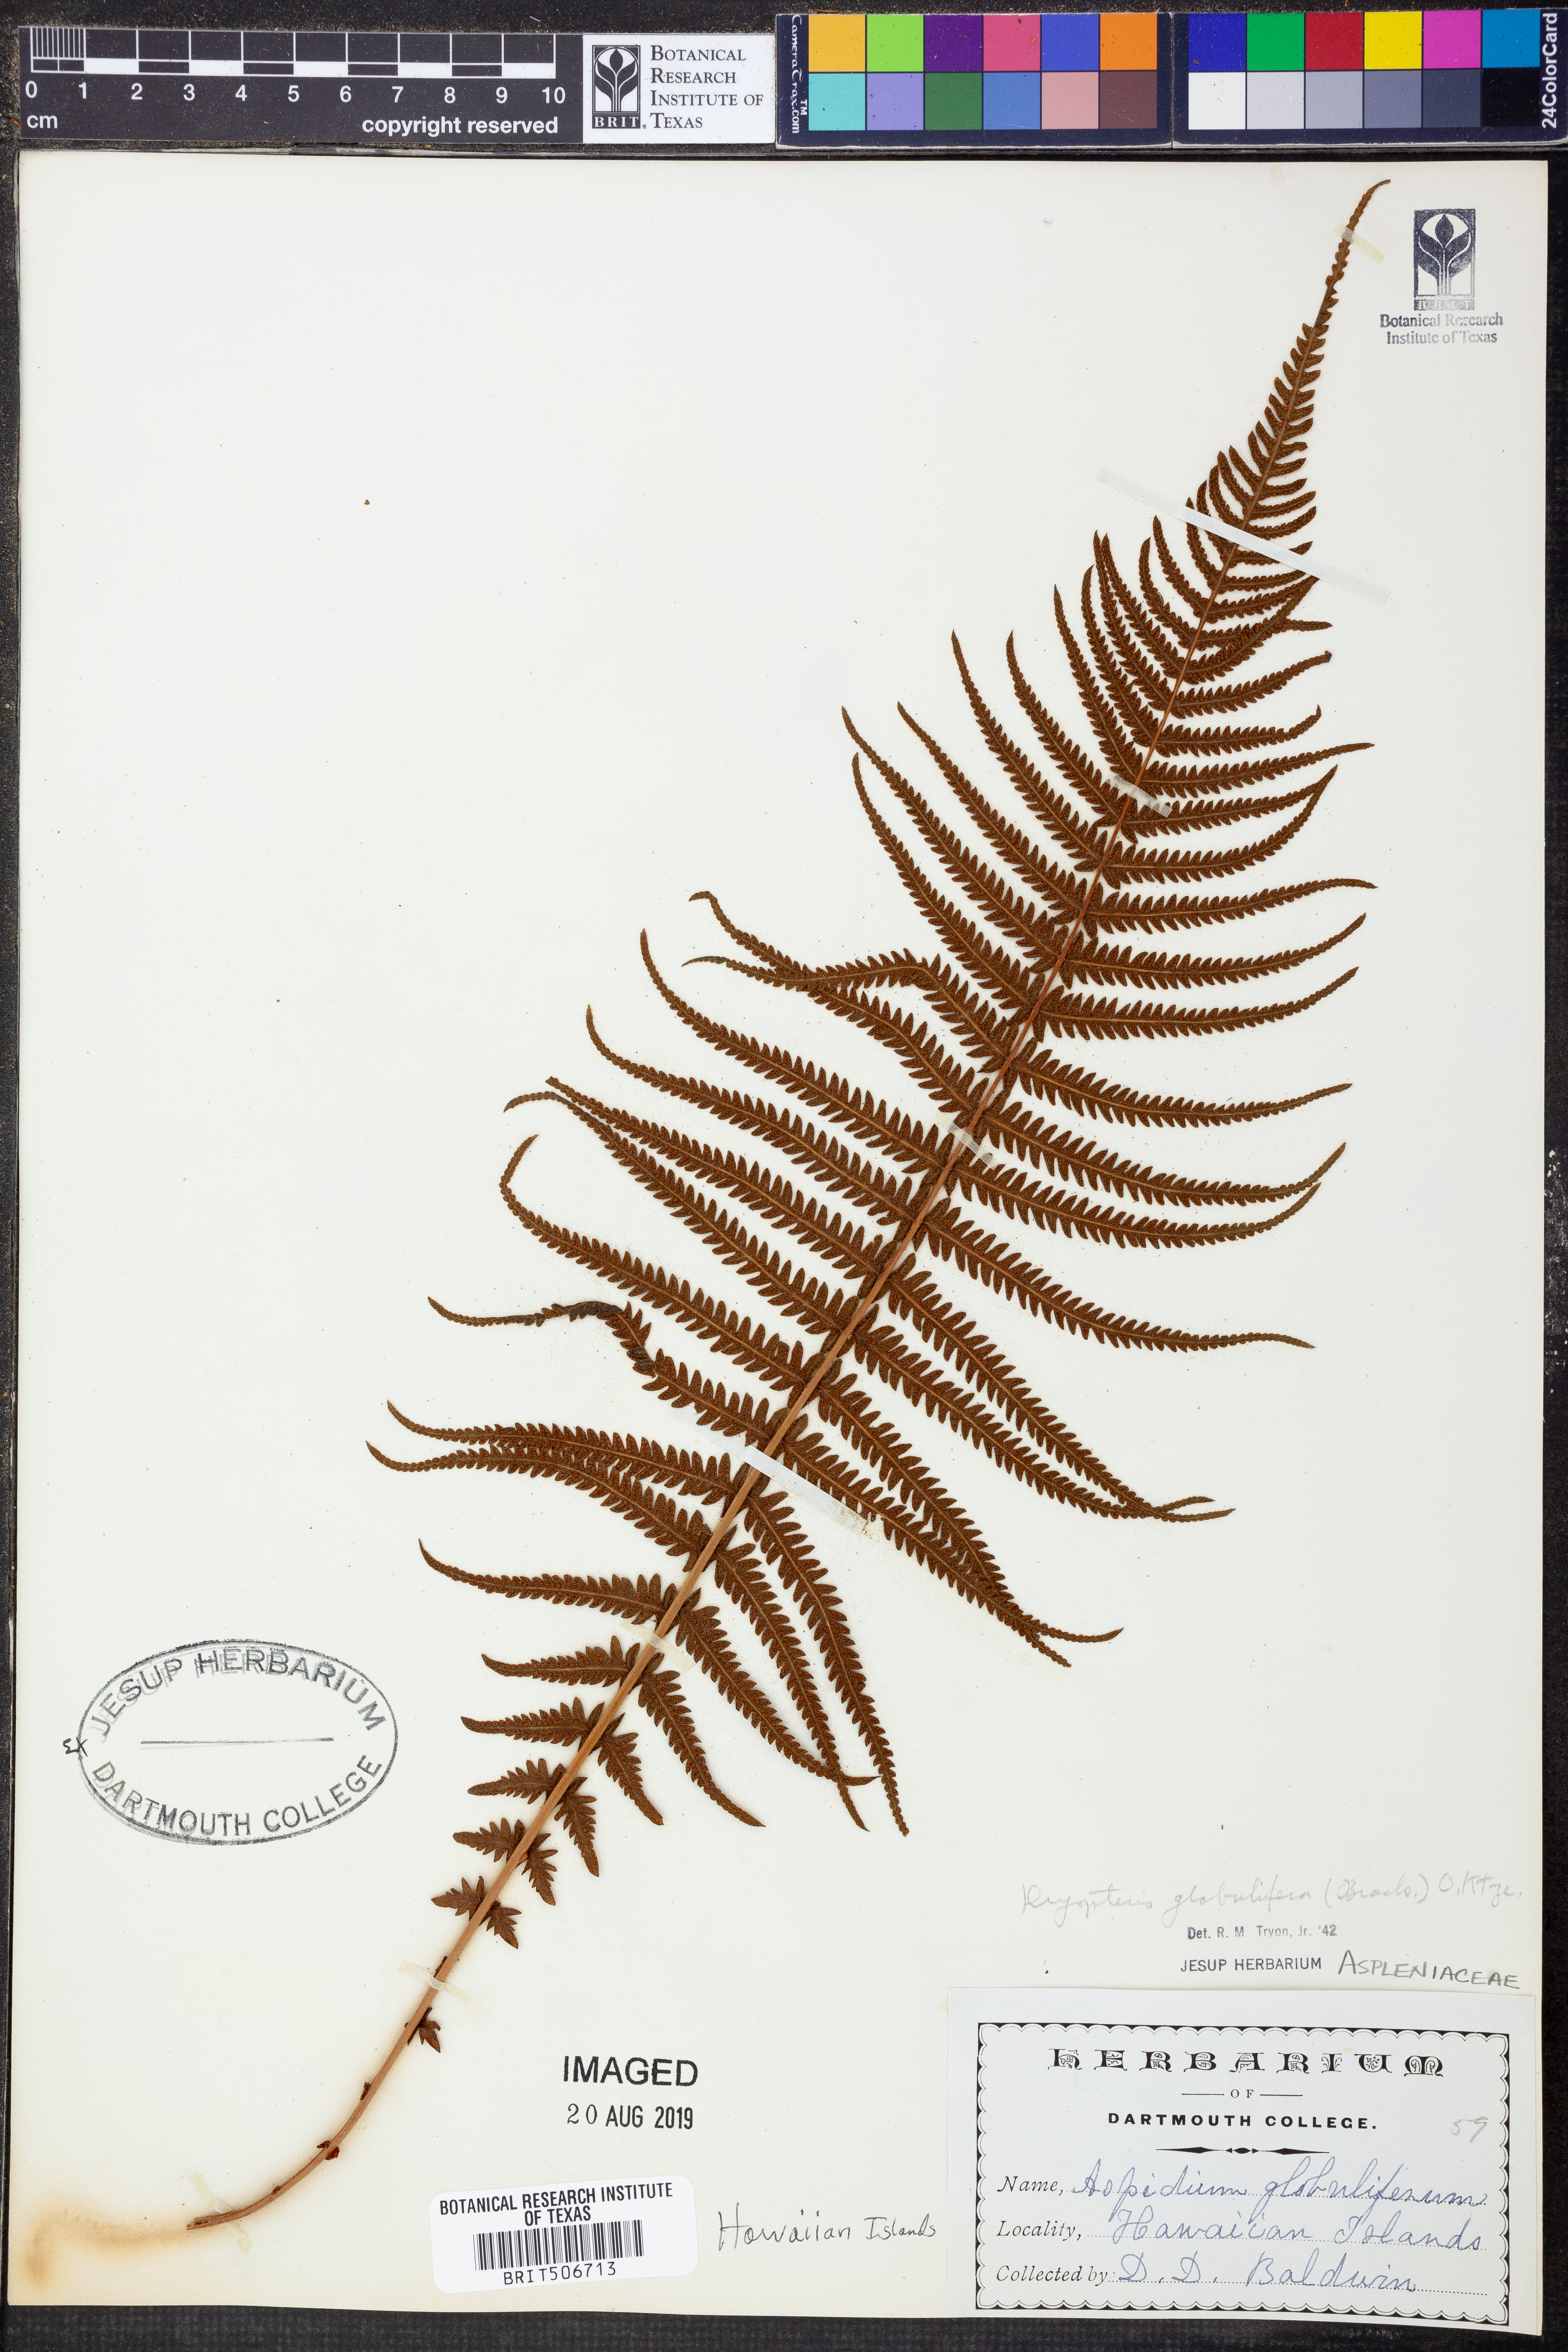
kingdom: Plantae
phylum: Tracheophyta
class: Polypodiopsida
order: Polypodiales
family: Thelypteridaceae
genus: Amauropelta
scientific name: Amauropelta globulifera
